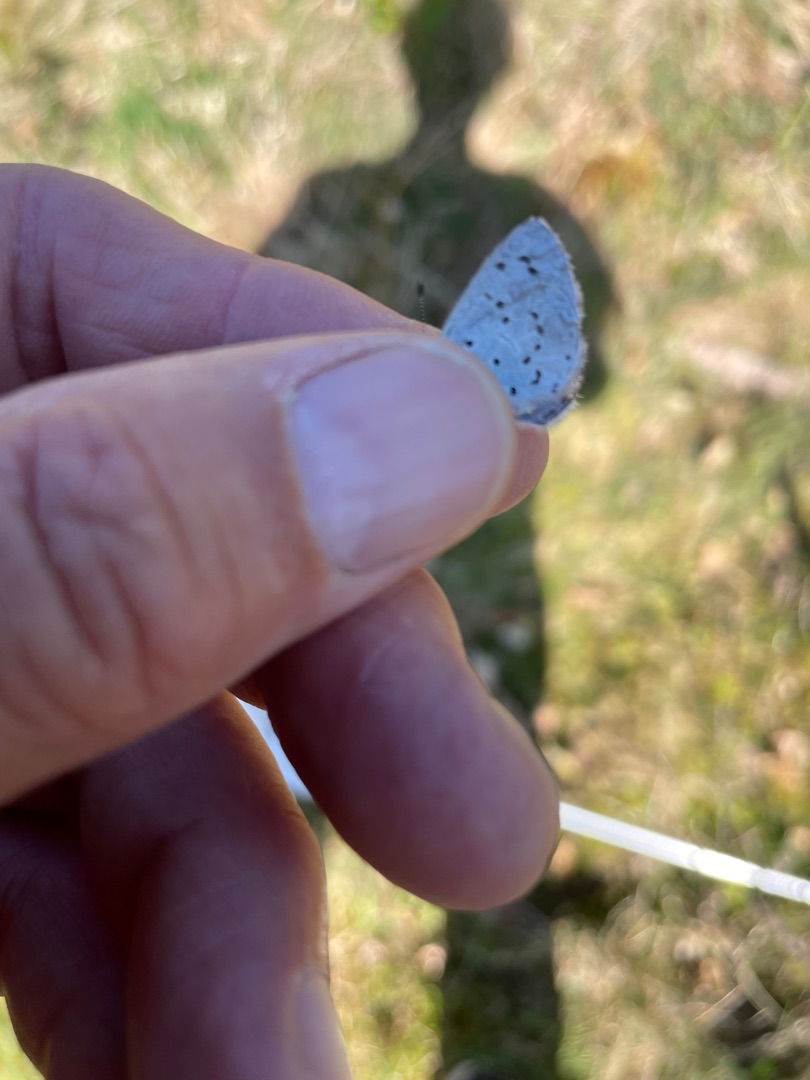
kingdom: Animalia
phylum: Arthropoda
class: Insecta
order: Lepidoptera
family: Lycaenidae
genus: Celastrina
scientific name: Celastrina argiolus
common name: Skovblåfugl
